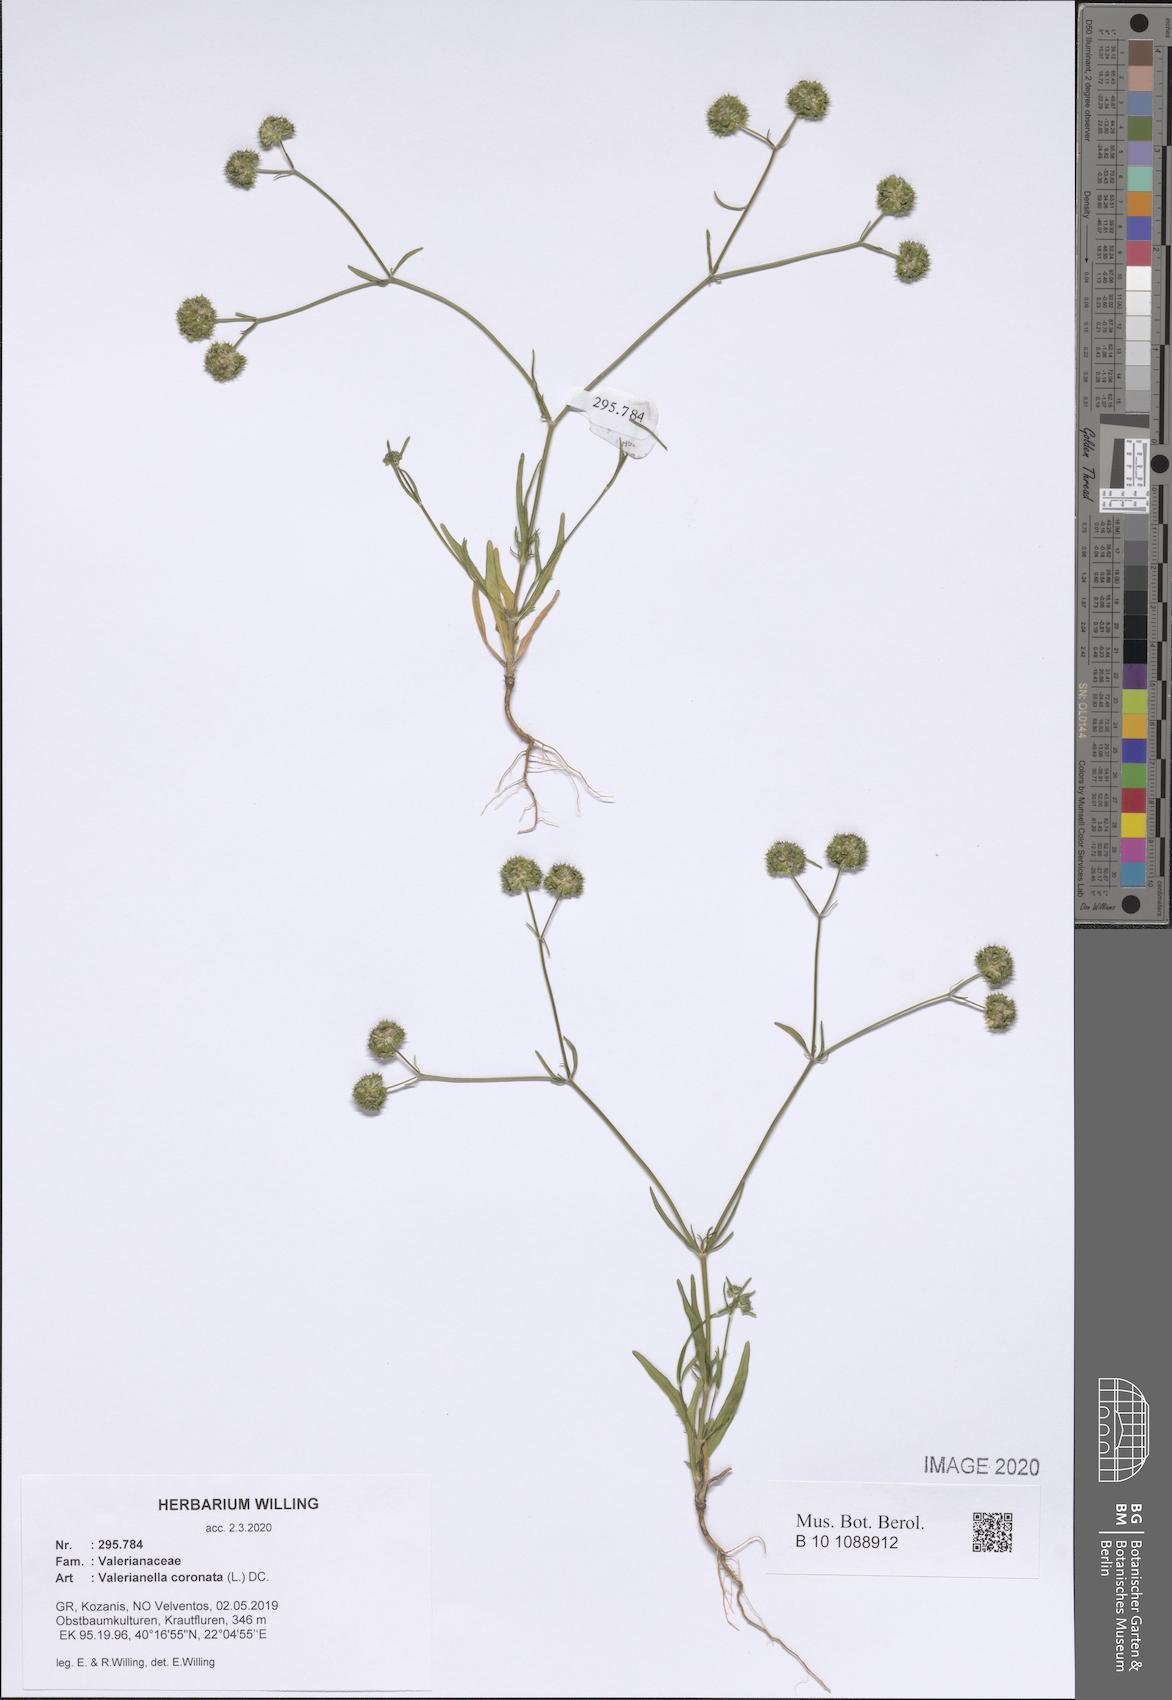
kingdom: Plantae
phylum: Tracheophyta
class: Magnoliopsida
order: Dipsacales
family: Caprifoliaceae
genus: Valerianella
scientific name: Valerianella coronata
